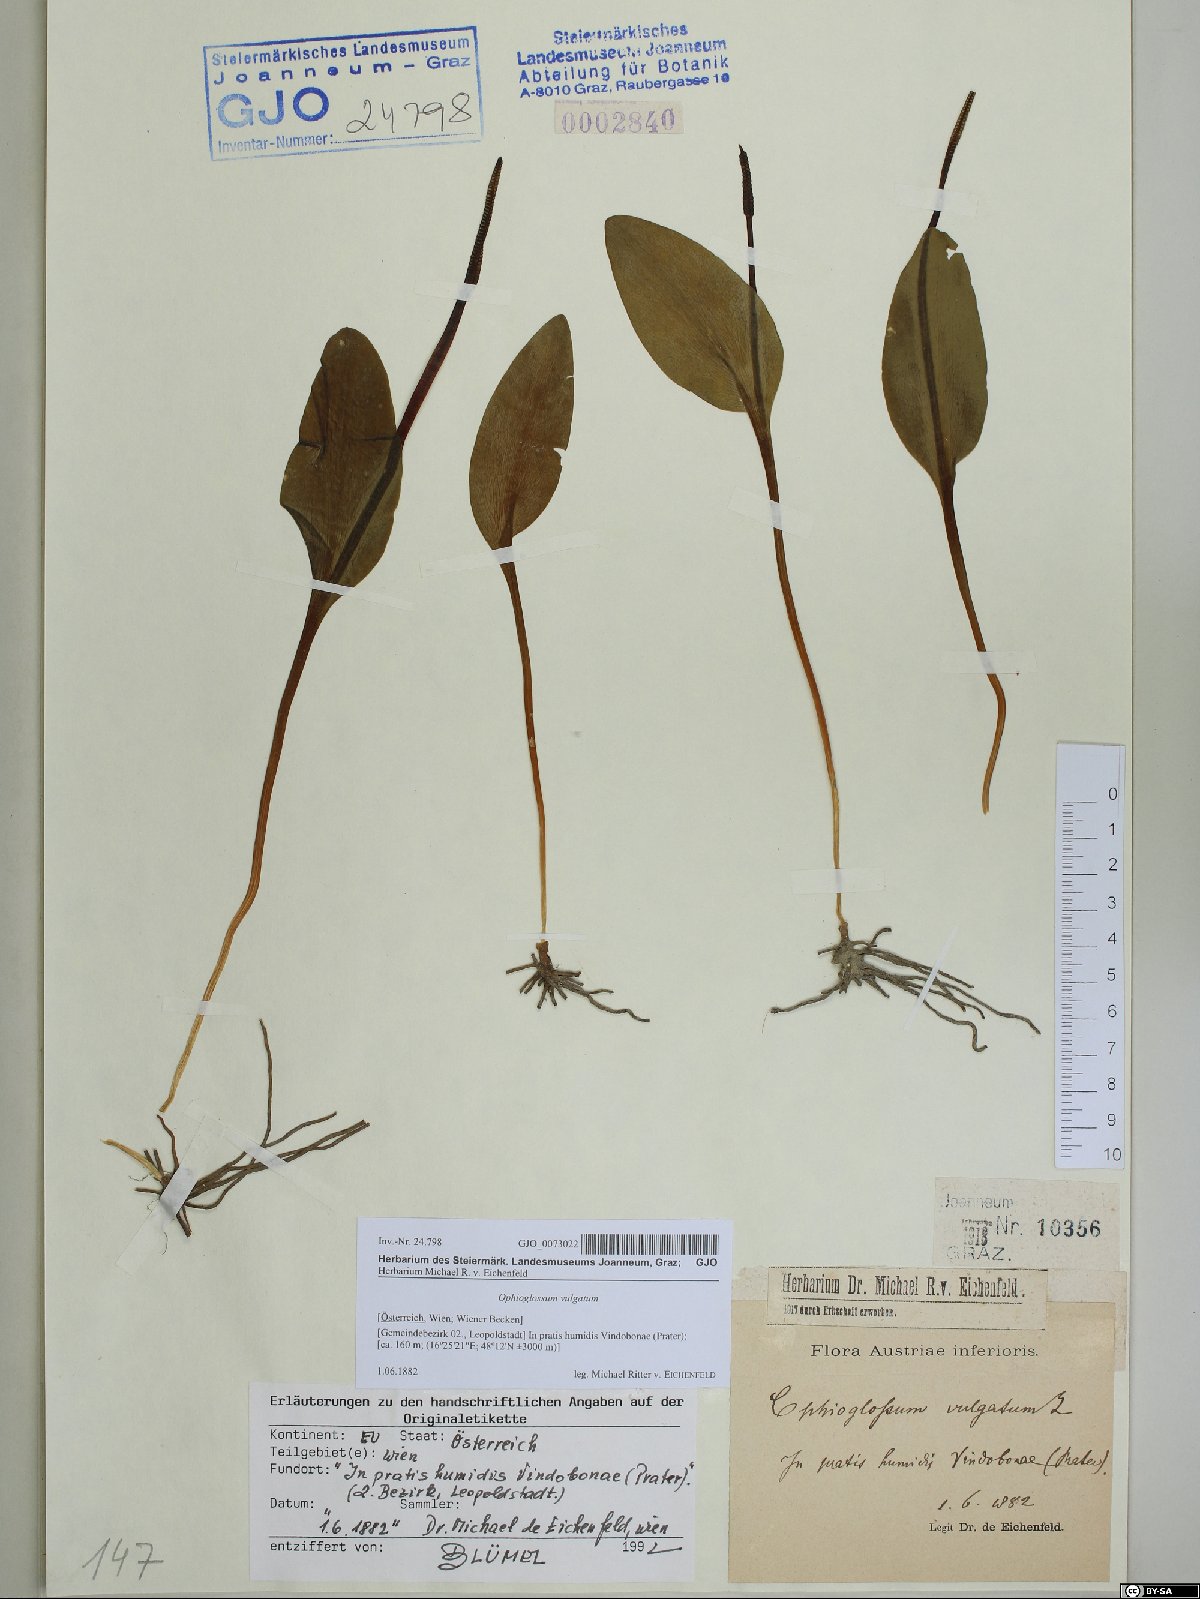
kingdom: Plantae
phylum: Tracheophyta
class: Polypodiopsida
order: Ophioglossales
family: Ophioglossaceae
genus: Ophioglossum
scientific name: Ophioglossum vulgatum
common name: Adder's-tongue
